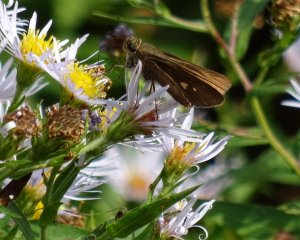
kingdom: Animalia
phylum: Arthropoda
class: Insecta
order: Lepidoptera
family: Hesperiidae
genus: Panoquina
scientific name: Panoquina ocola
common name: Ocola Skipper
